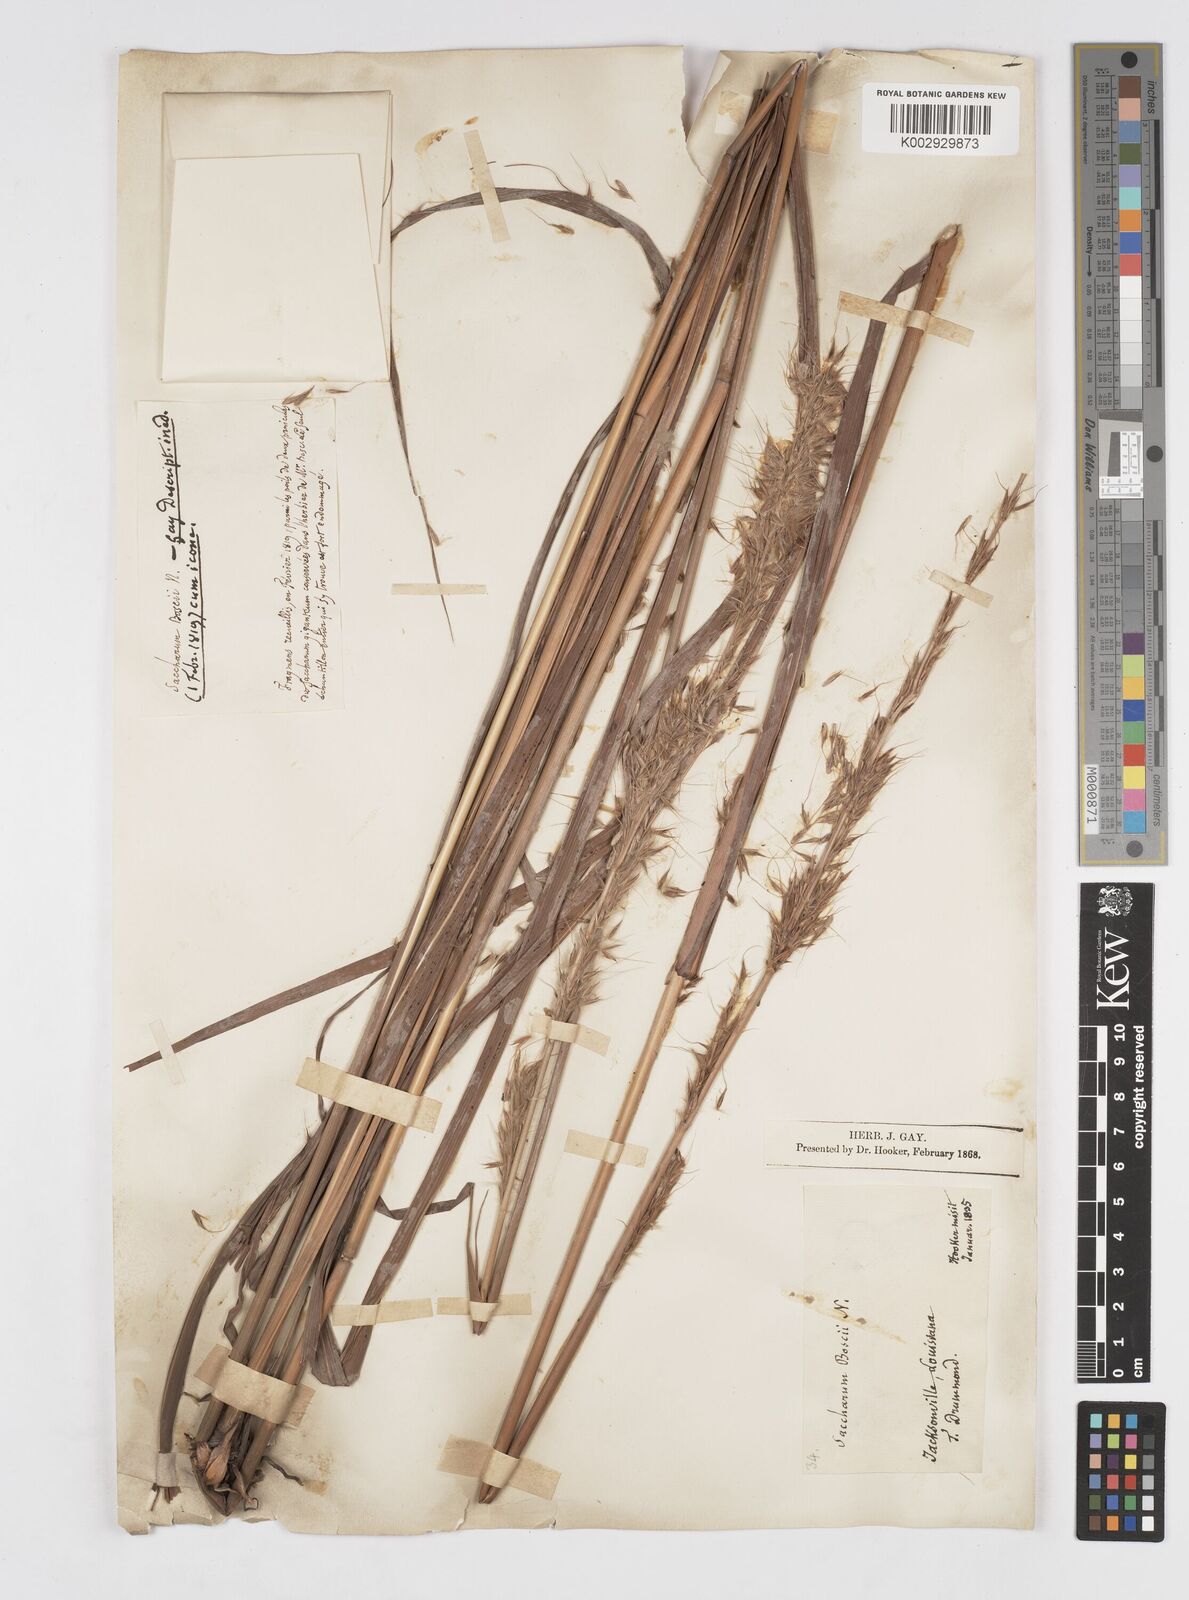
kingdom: Plantae
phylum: Tracheophyta
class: Liliopsida
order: Poales
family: Poaceae
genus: Erianthus
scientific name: Erianthus contortus
